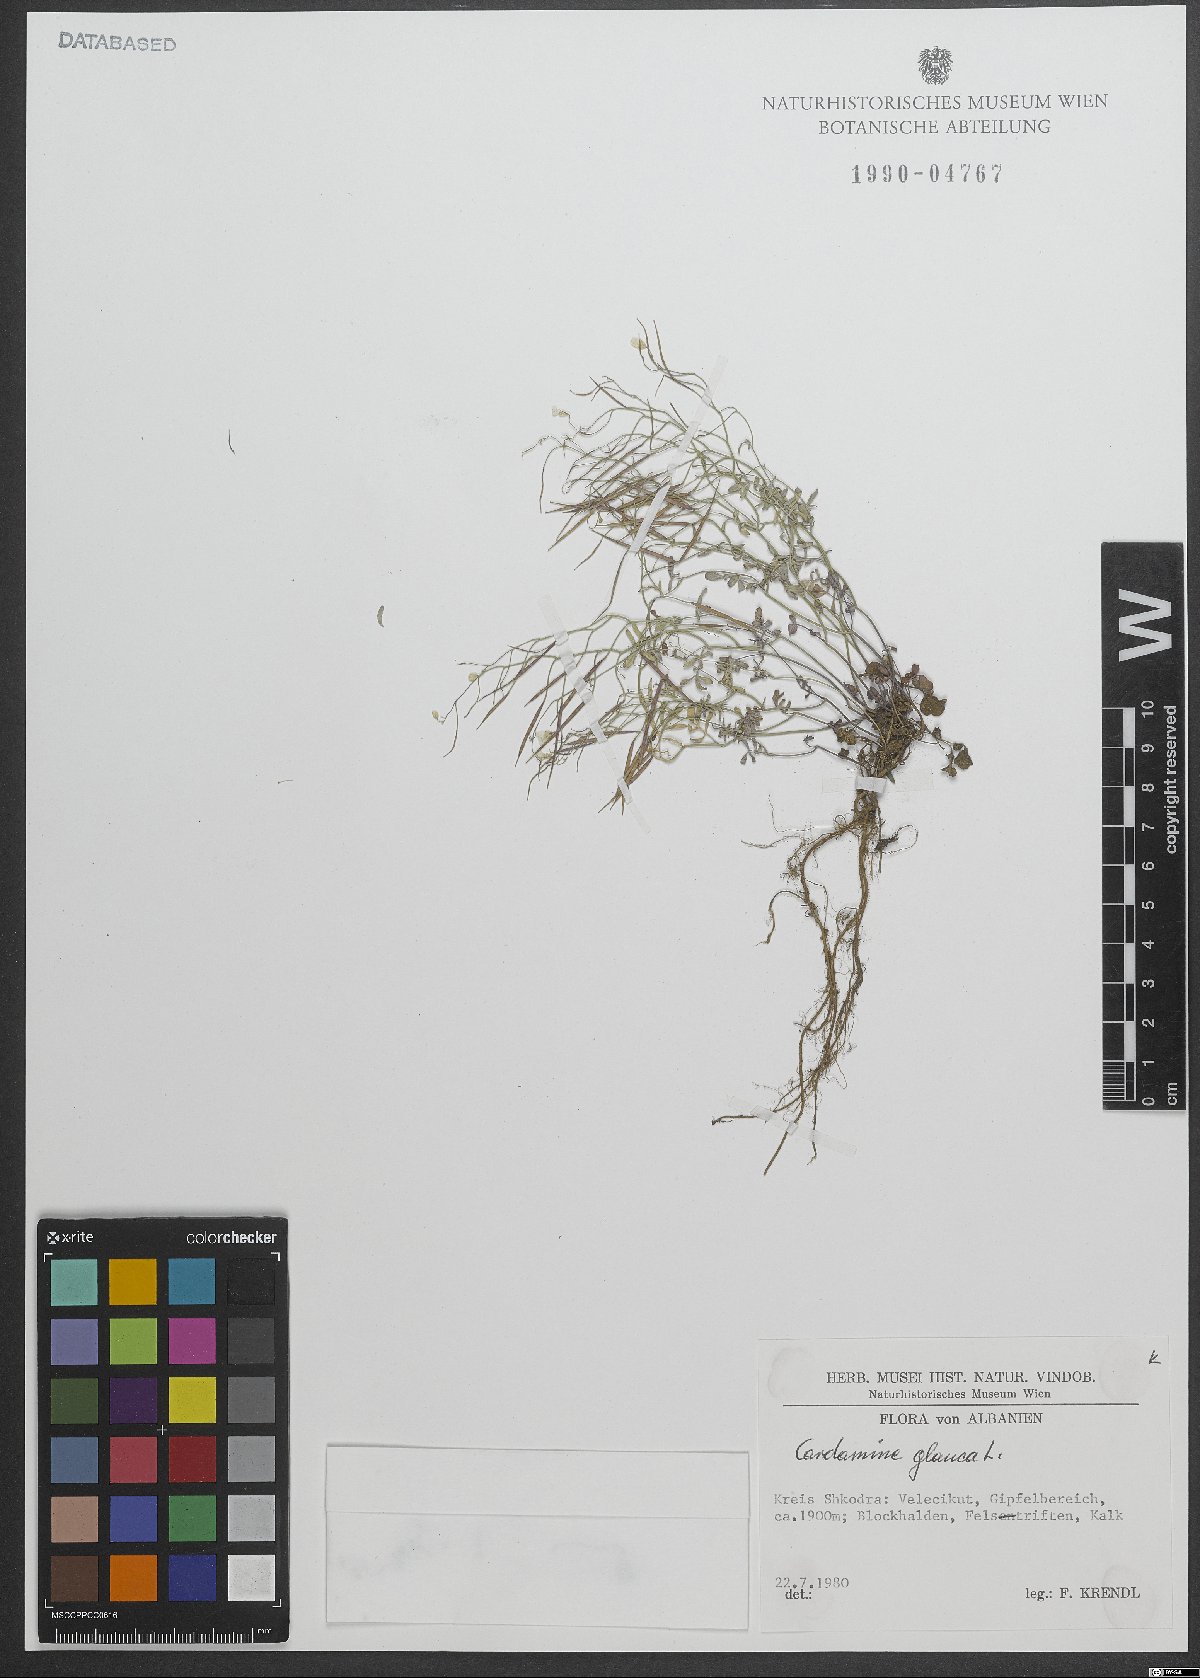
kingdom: Plantae
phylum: Tracheophyta
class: Magnoliopsida
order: Brassicales
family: Brassicaceae
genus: Cardamine
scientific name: Cardamine glauca
